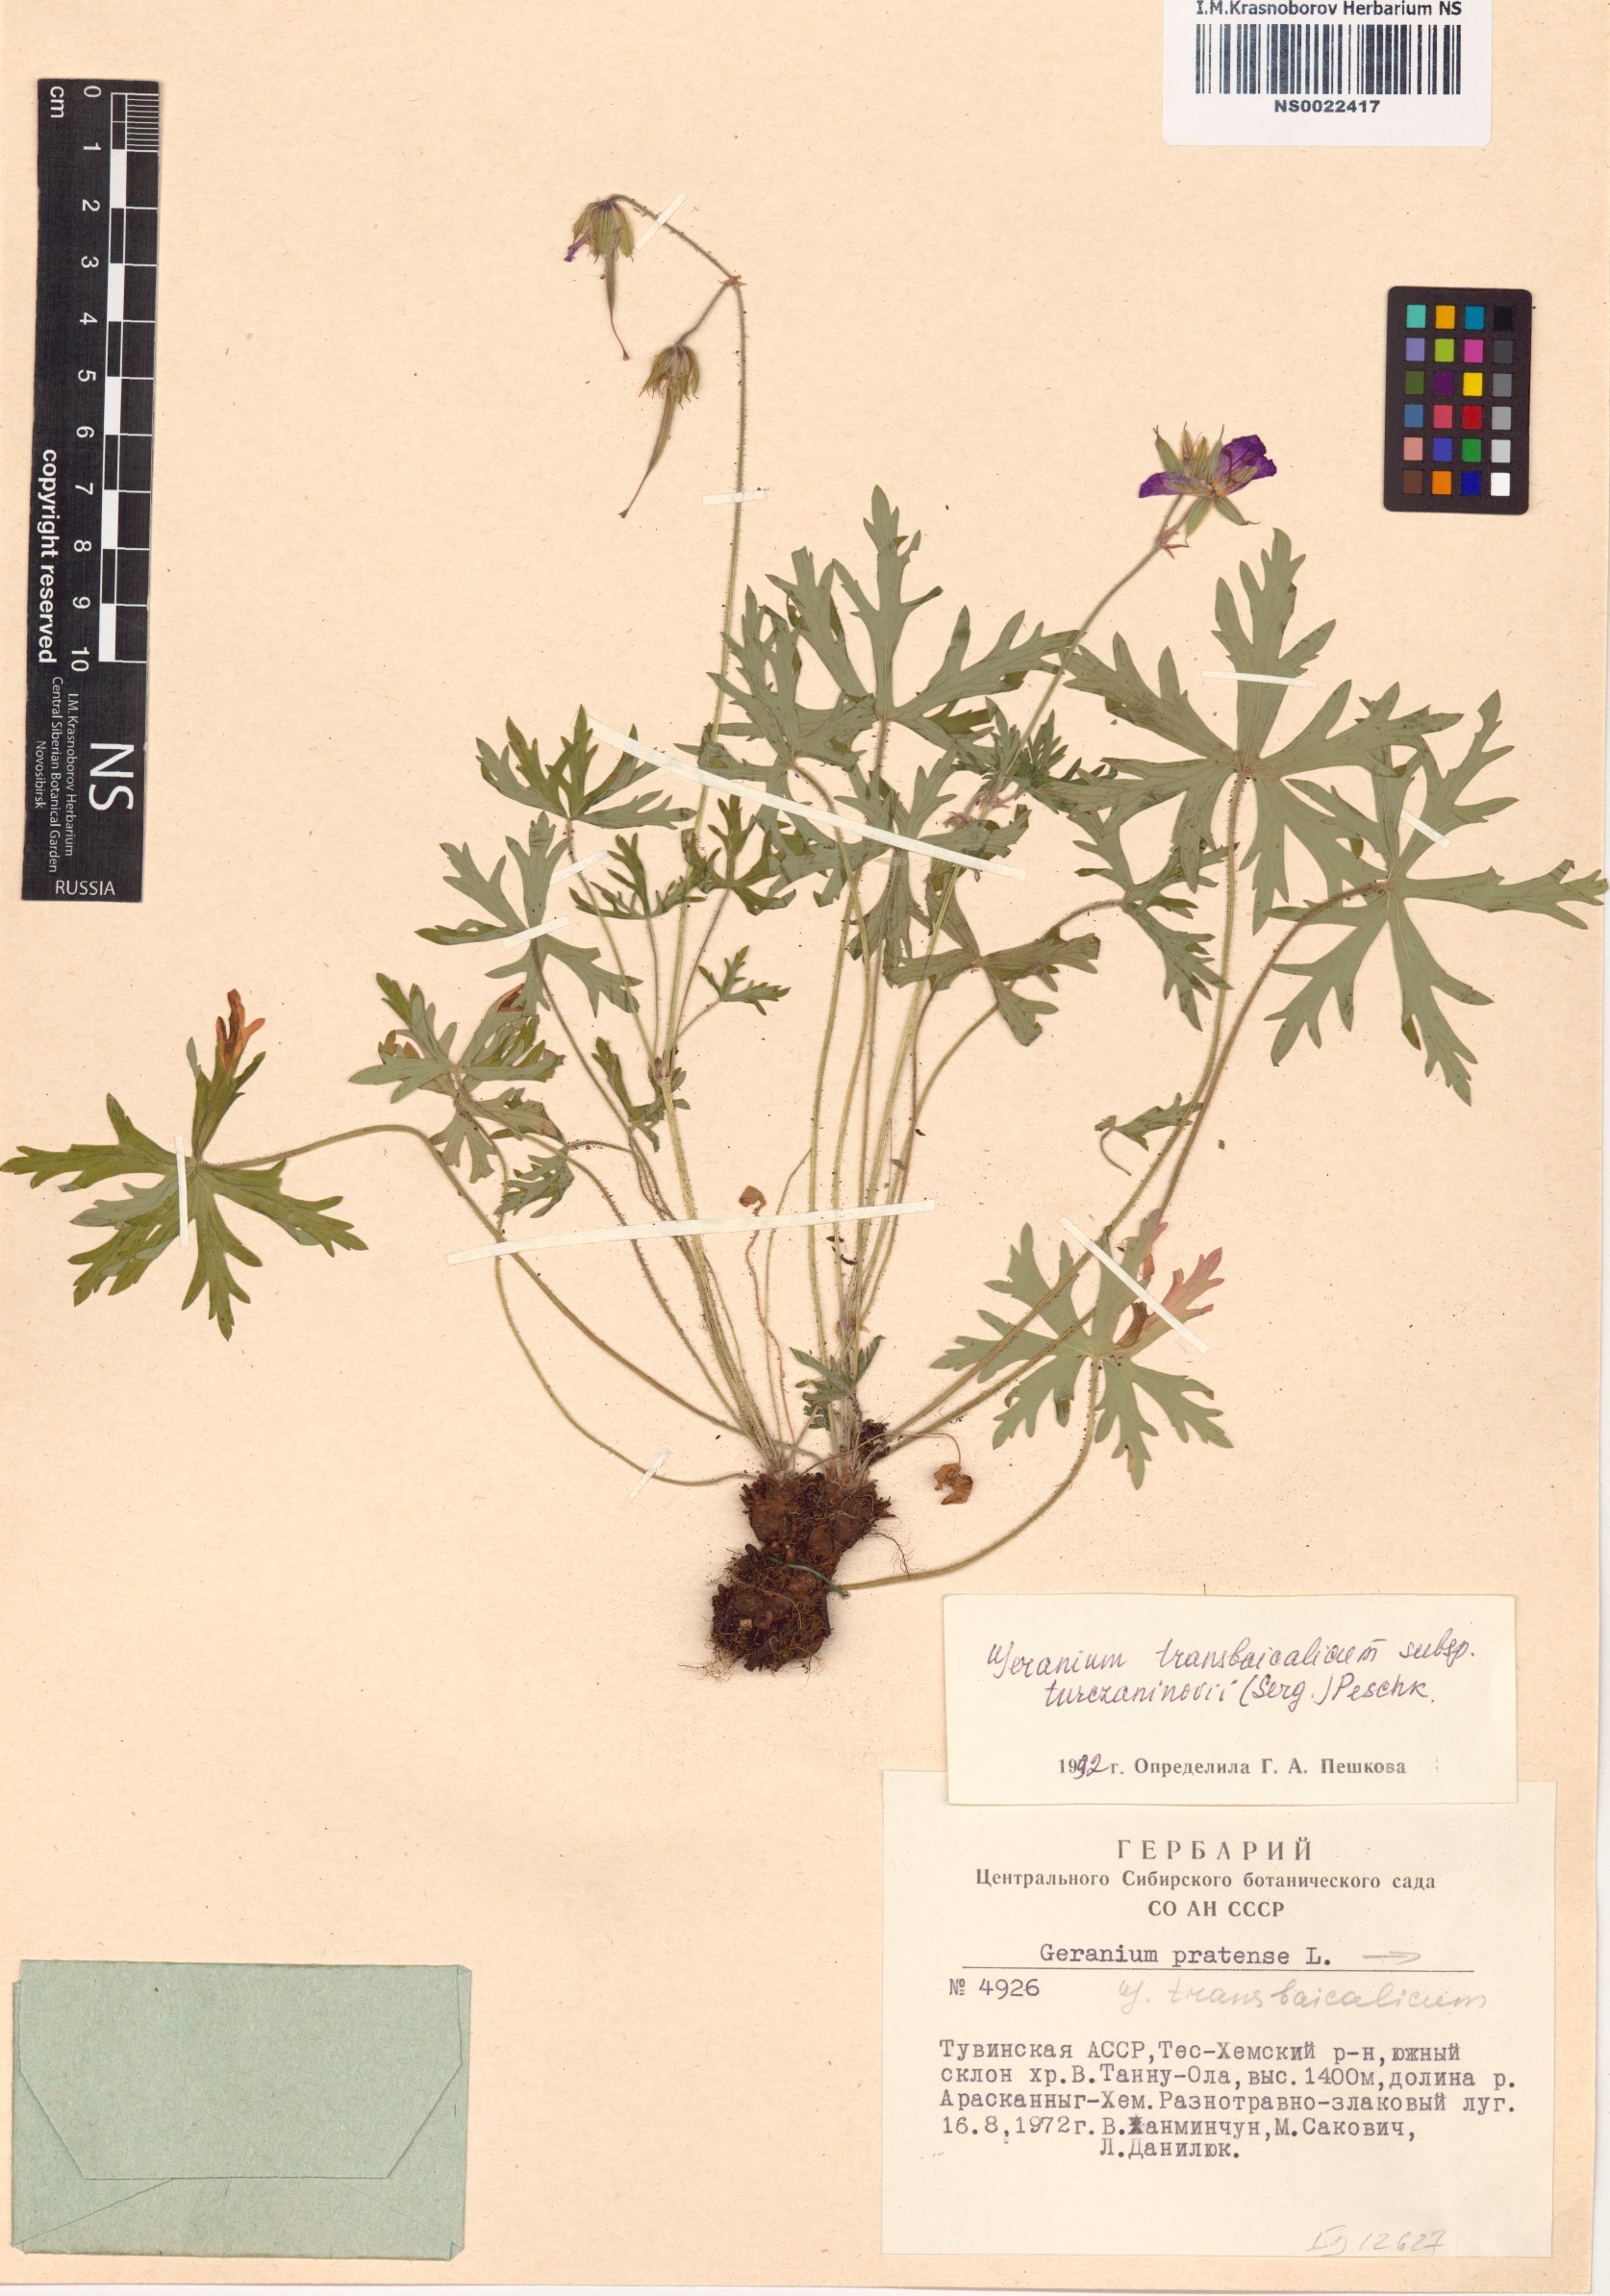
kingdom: Plantae
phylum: Tracheophyta
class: Magnoliopsida
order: Geraniales
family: Geraniaceae
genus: Geranium
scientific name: Geranium pratense
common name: Meadow crane's-bill
